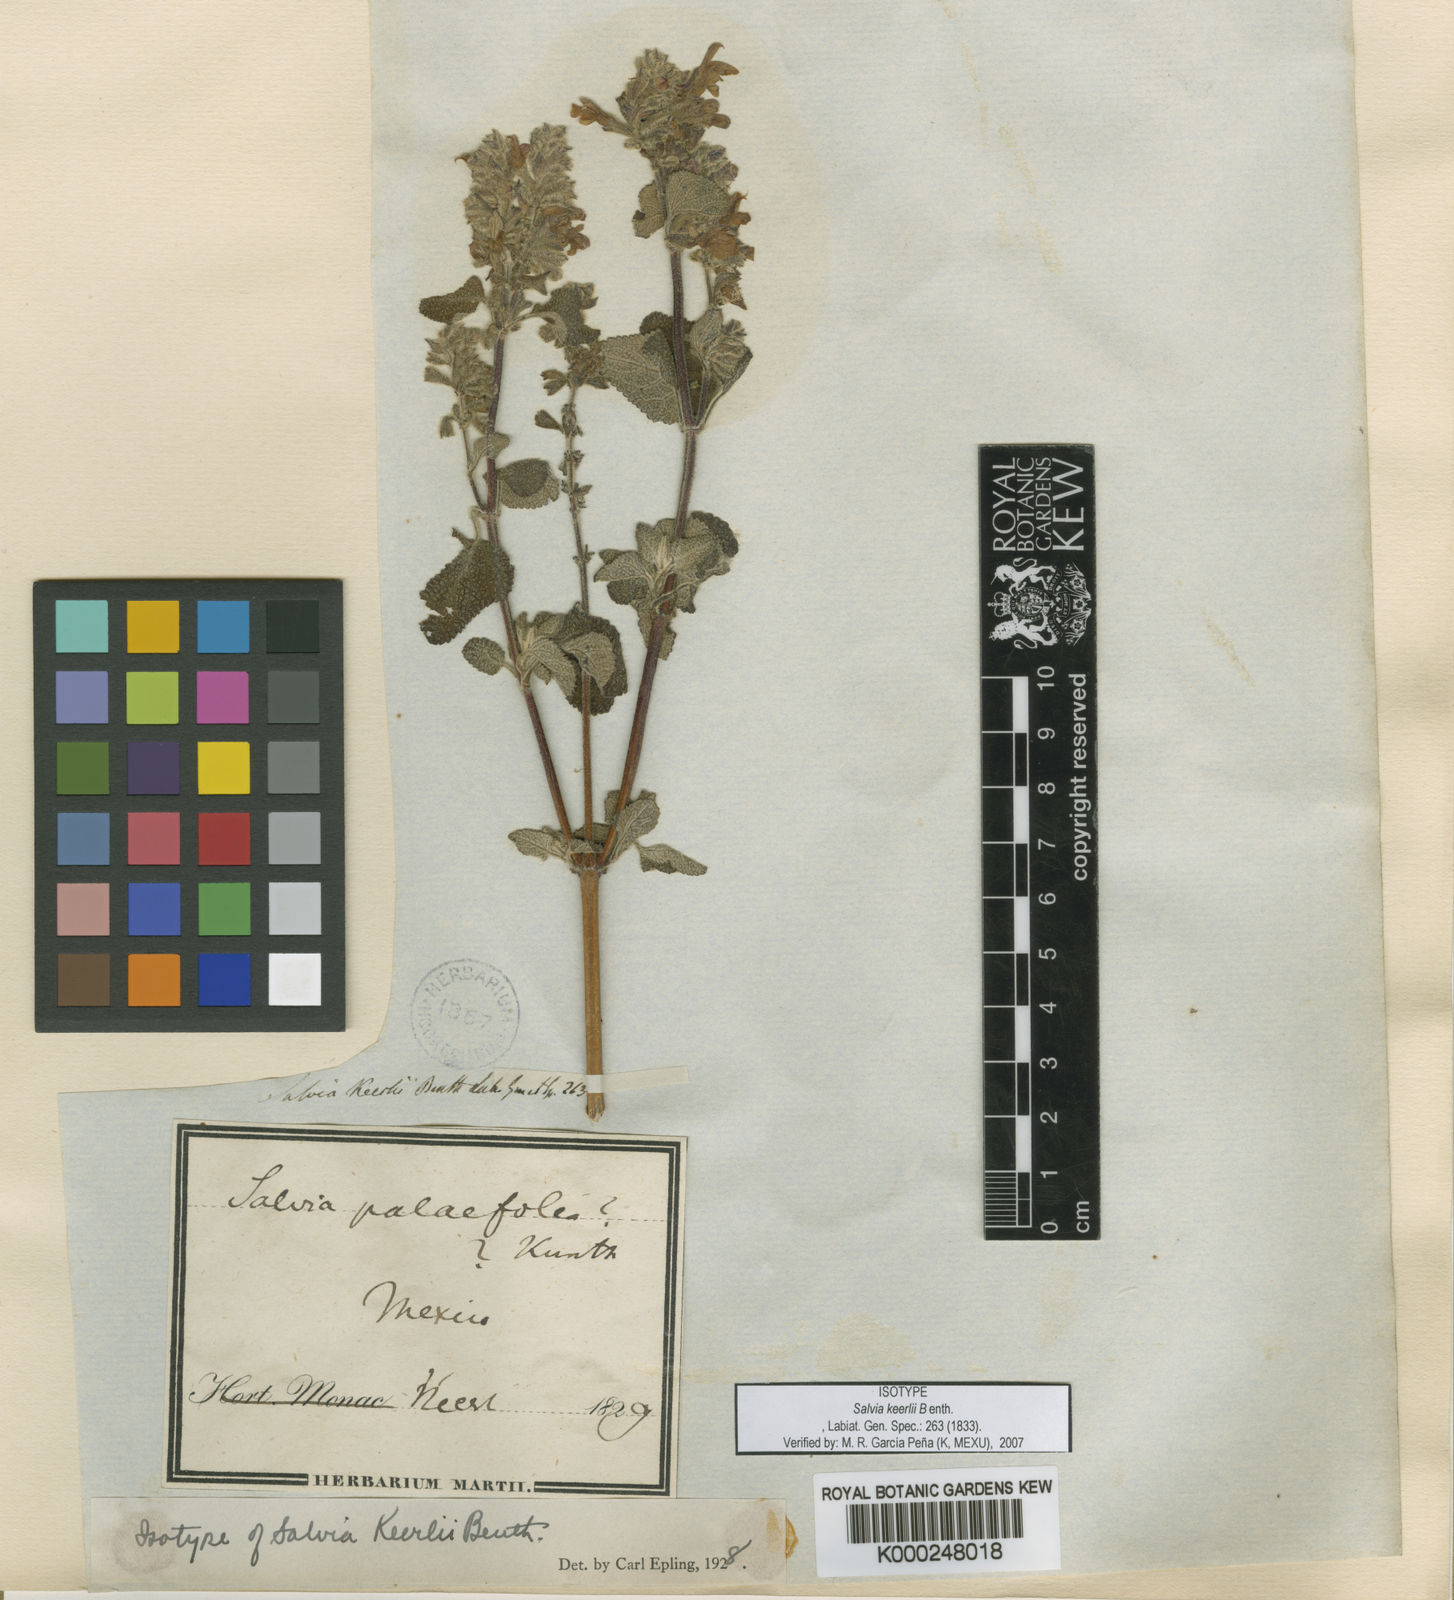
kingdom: Plantae
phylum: Tracheophyta
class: Magnoliopsida
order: Lamiales
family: Lamiaceae
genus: Salvia
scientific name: Salvia keerlii
